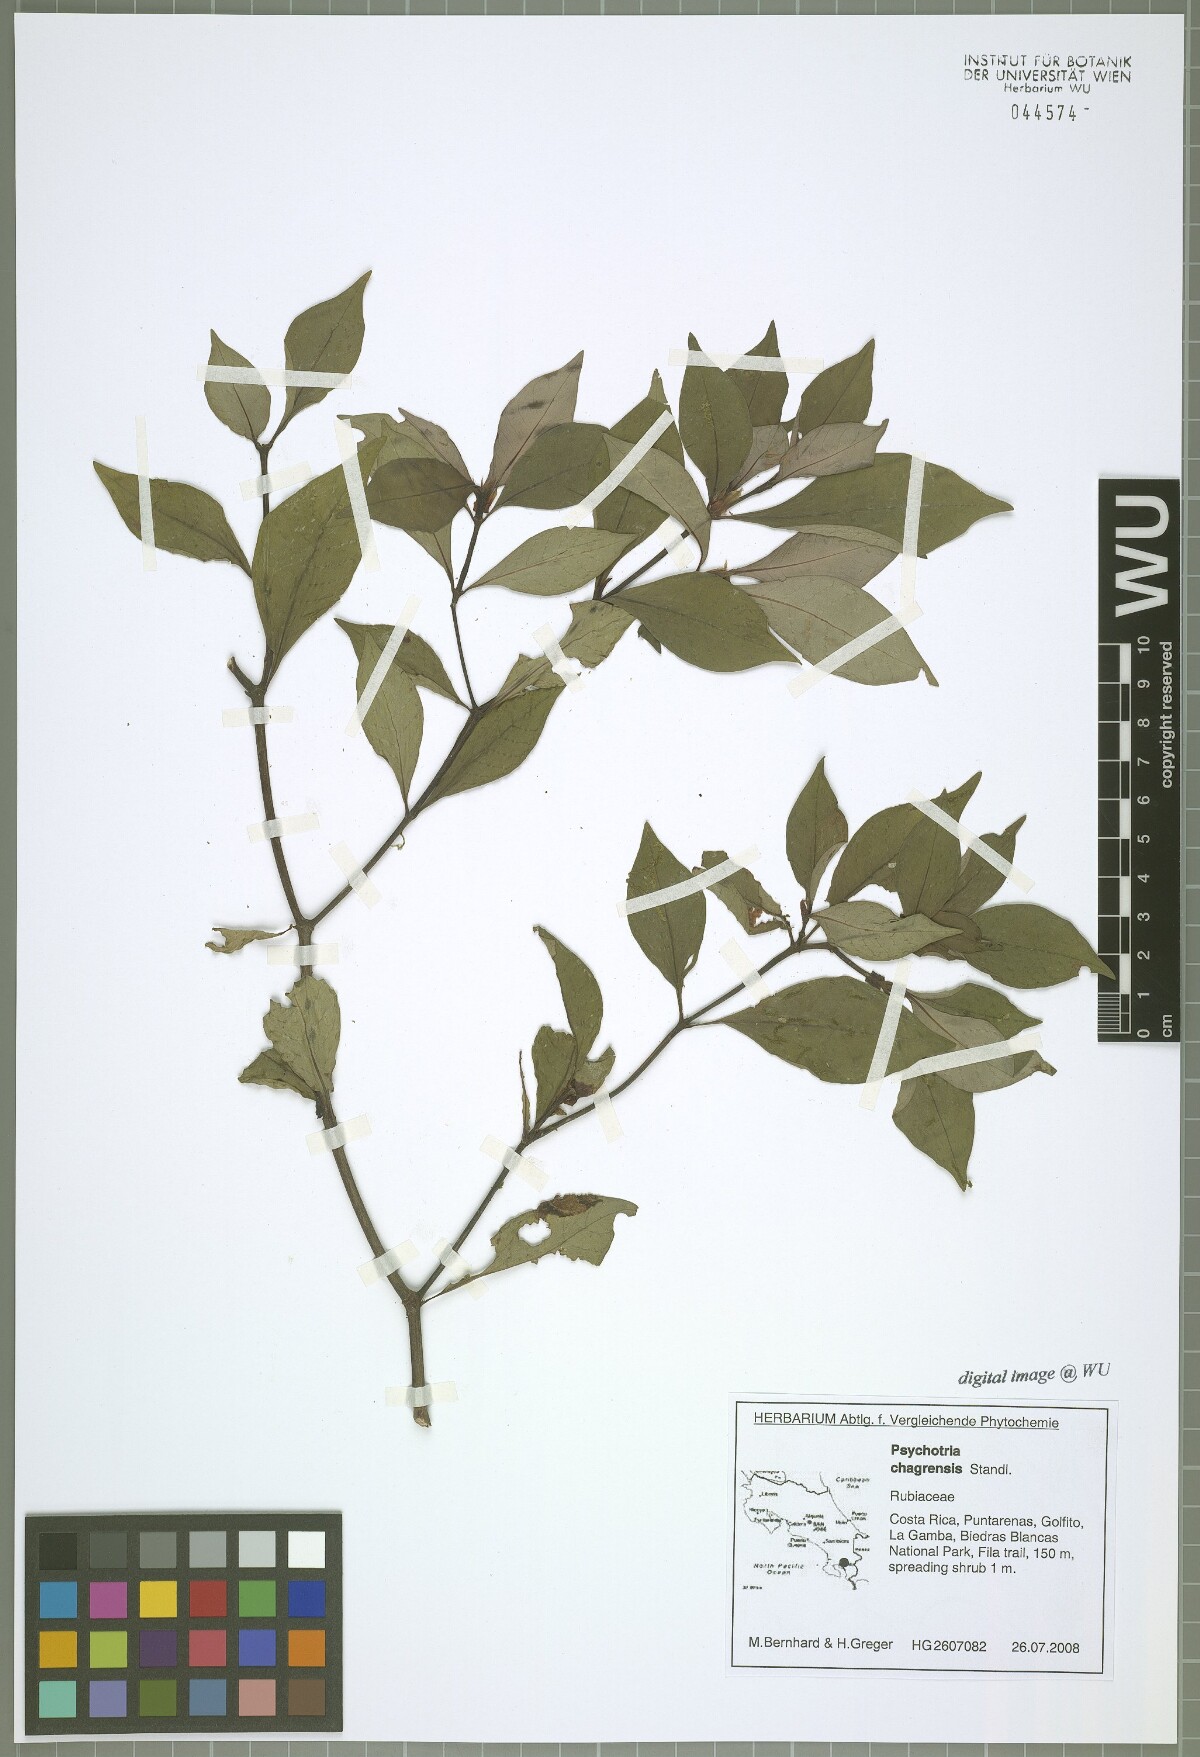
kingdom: Plantae
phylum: Tracheophyta
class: Magnoliopsida
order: Gentianales
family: Rubiaceae
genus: Psychotria
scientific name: Psychotria chagrensis
